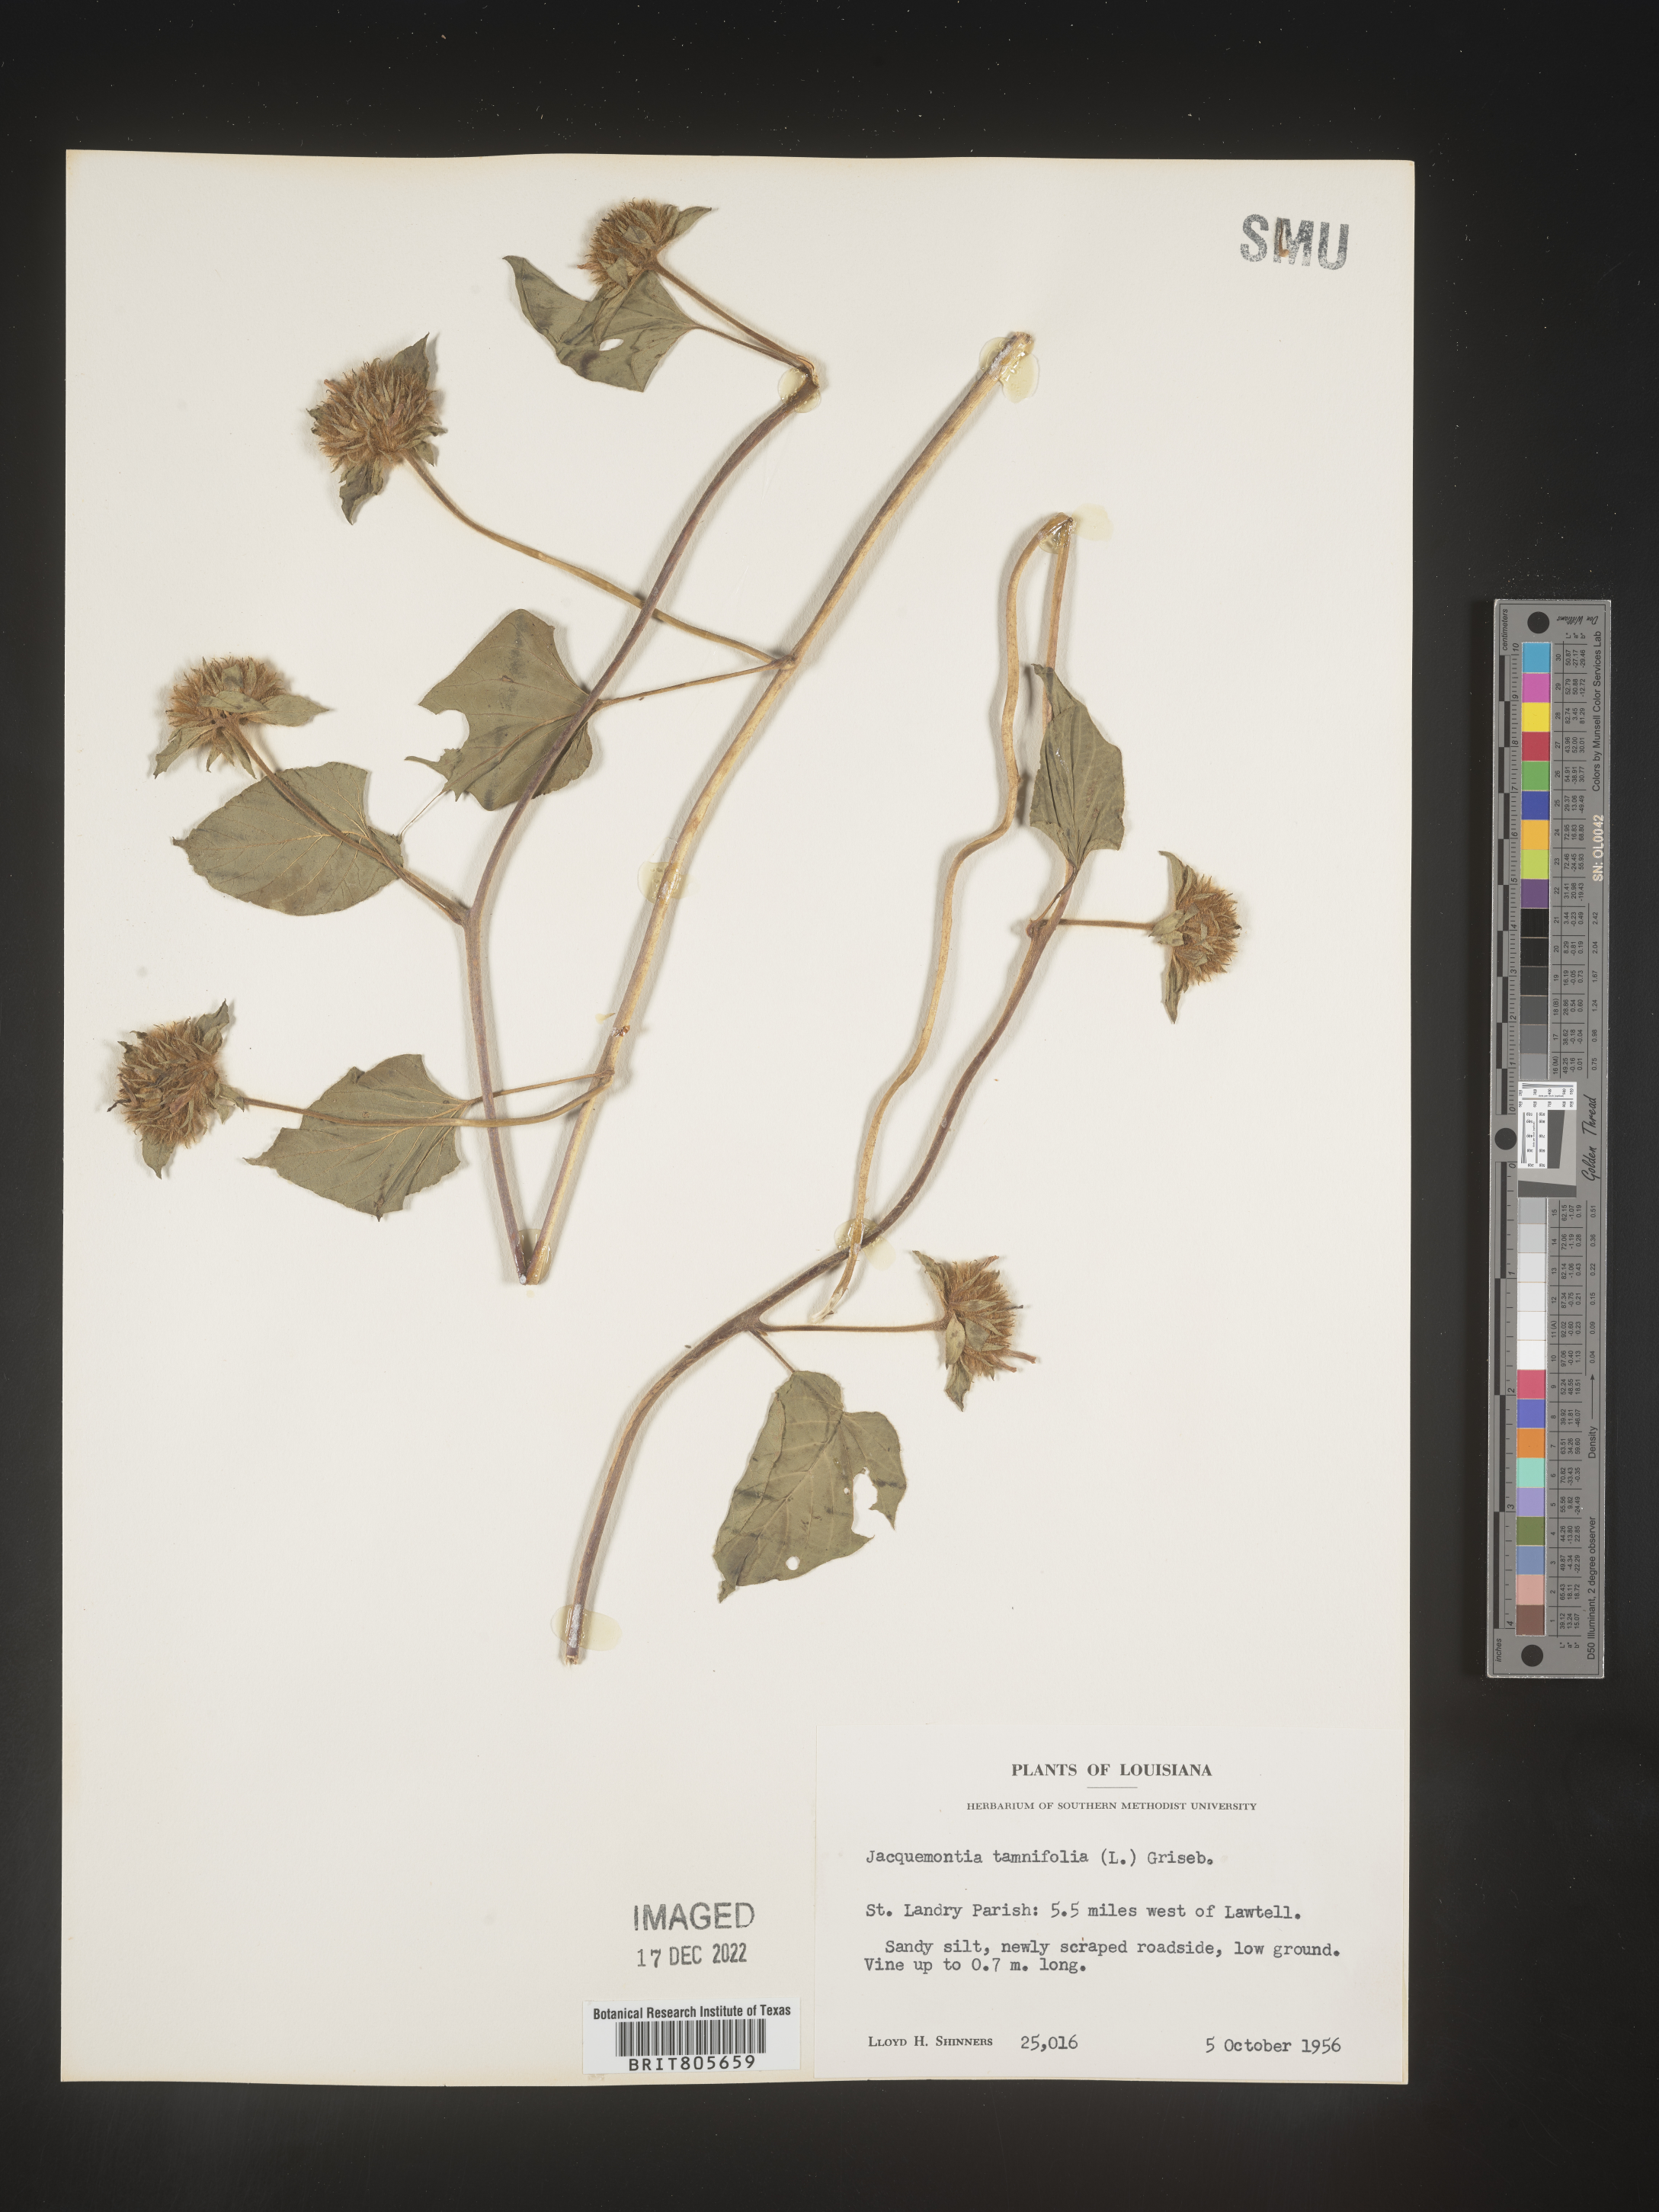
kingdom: Plantae
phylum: Tracheophyta
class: Magnoliopsida
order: Solanales
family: Convolvulaceae
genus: Jacquemontia
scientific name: Jacquemontia tamnifolia
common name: Hairy clustervine
